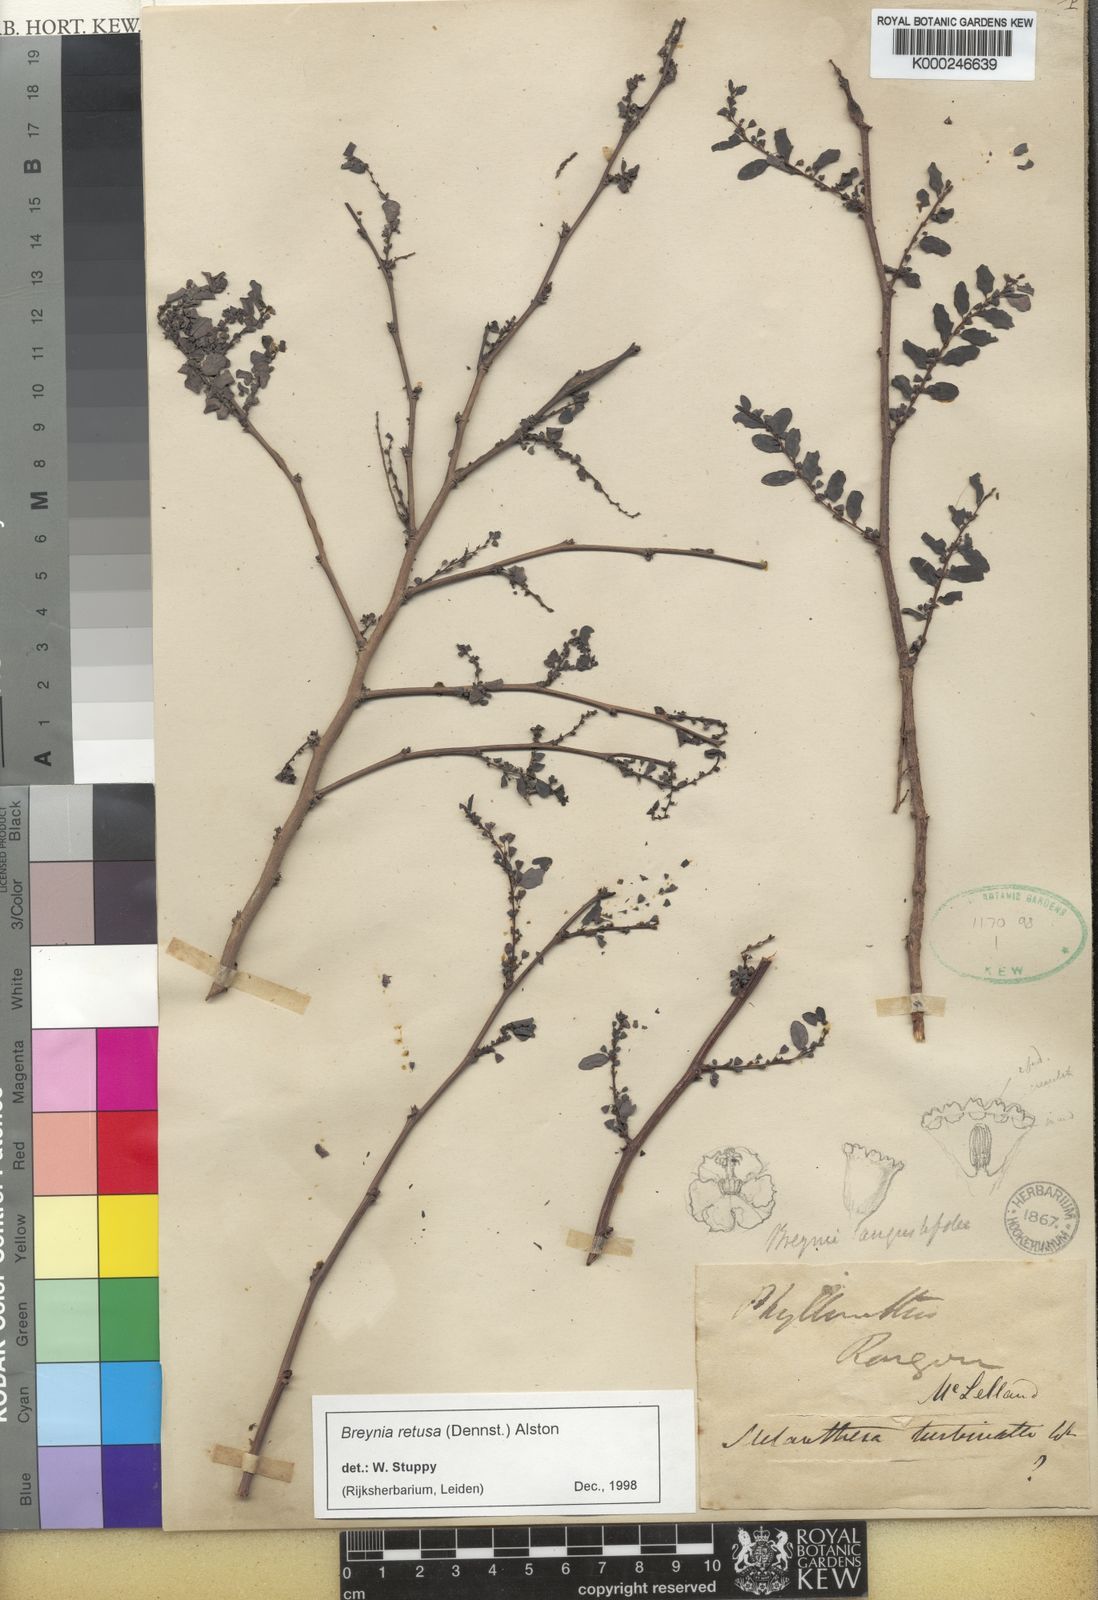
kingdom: Plantae
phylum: Tracheophyta
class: Magnoliopsida
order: Malpighiales
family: Phyllanthaceae
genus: Breynia
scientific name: Breynia retusa
